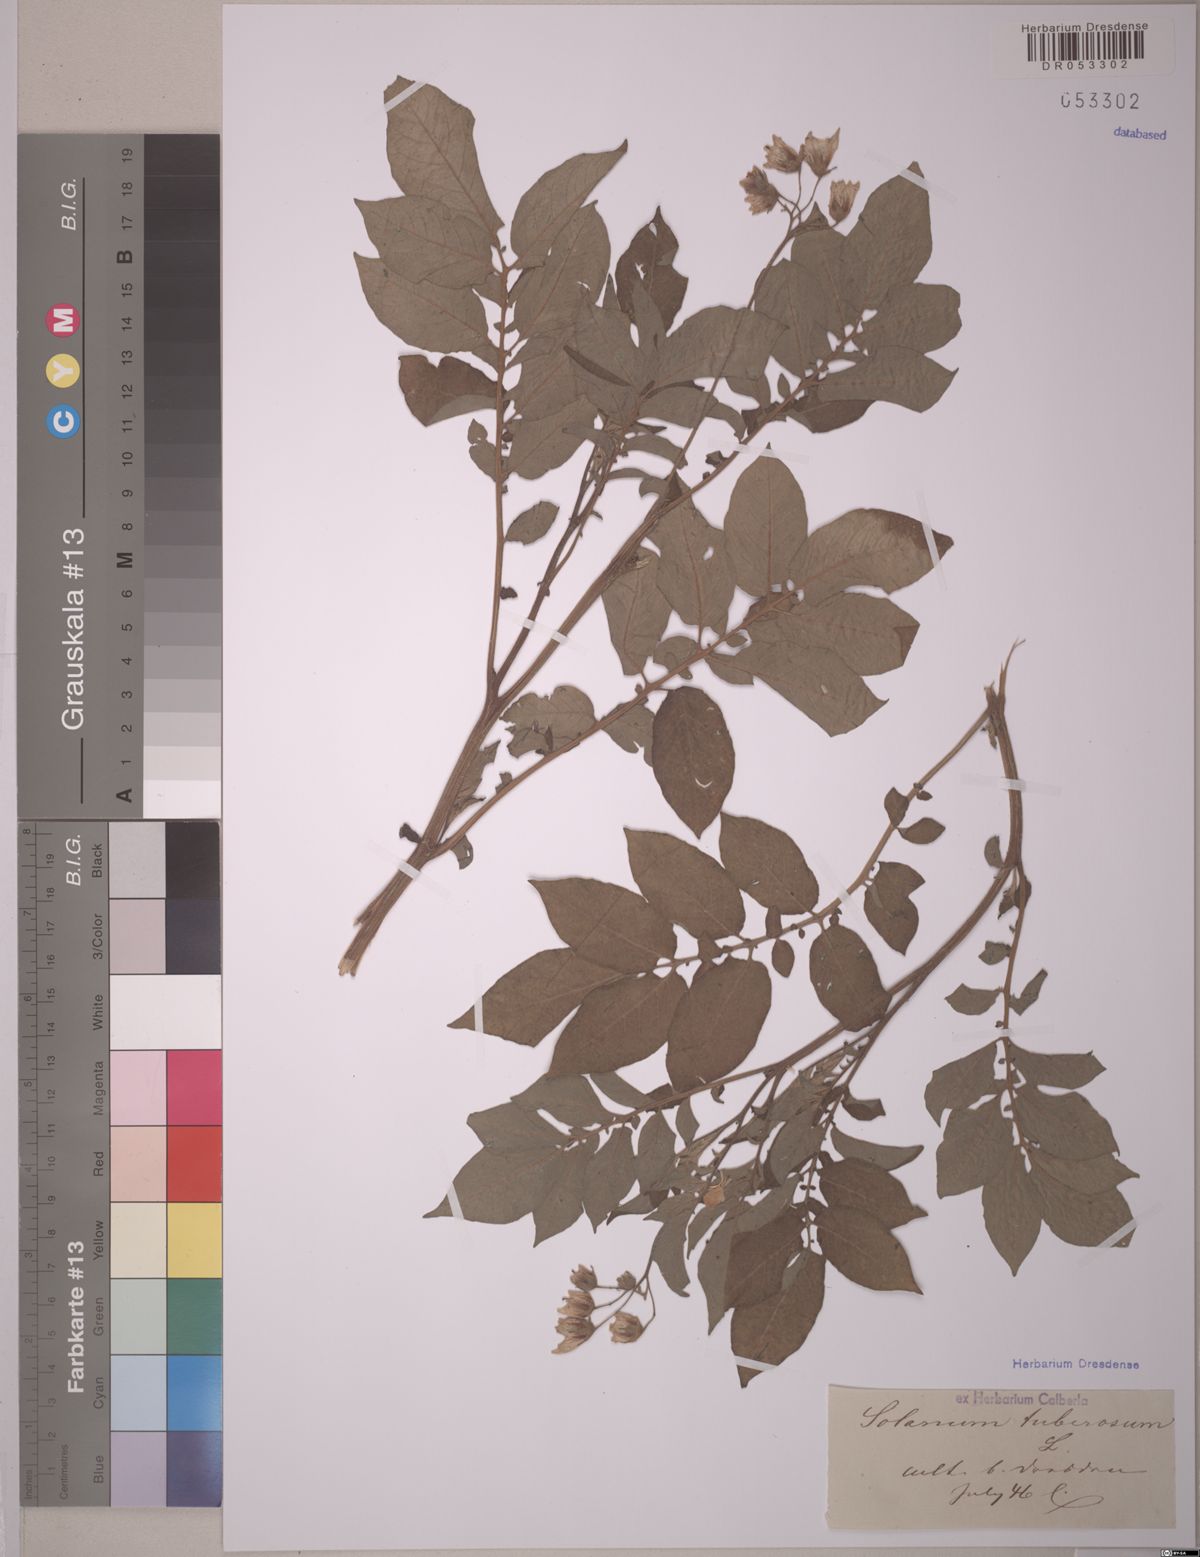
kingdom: Plantae
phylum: Tracheophyta
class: Magnoliopsida
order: Solanales
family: Solanaceae
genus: Solanum
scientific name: Solanum tuberosum
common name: Potato
